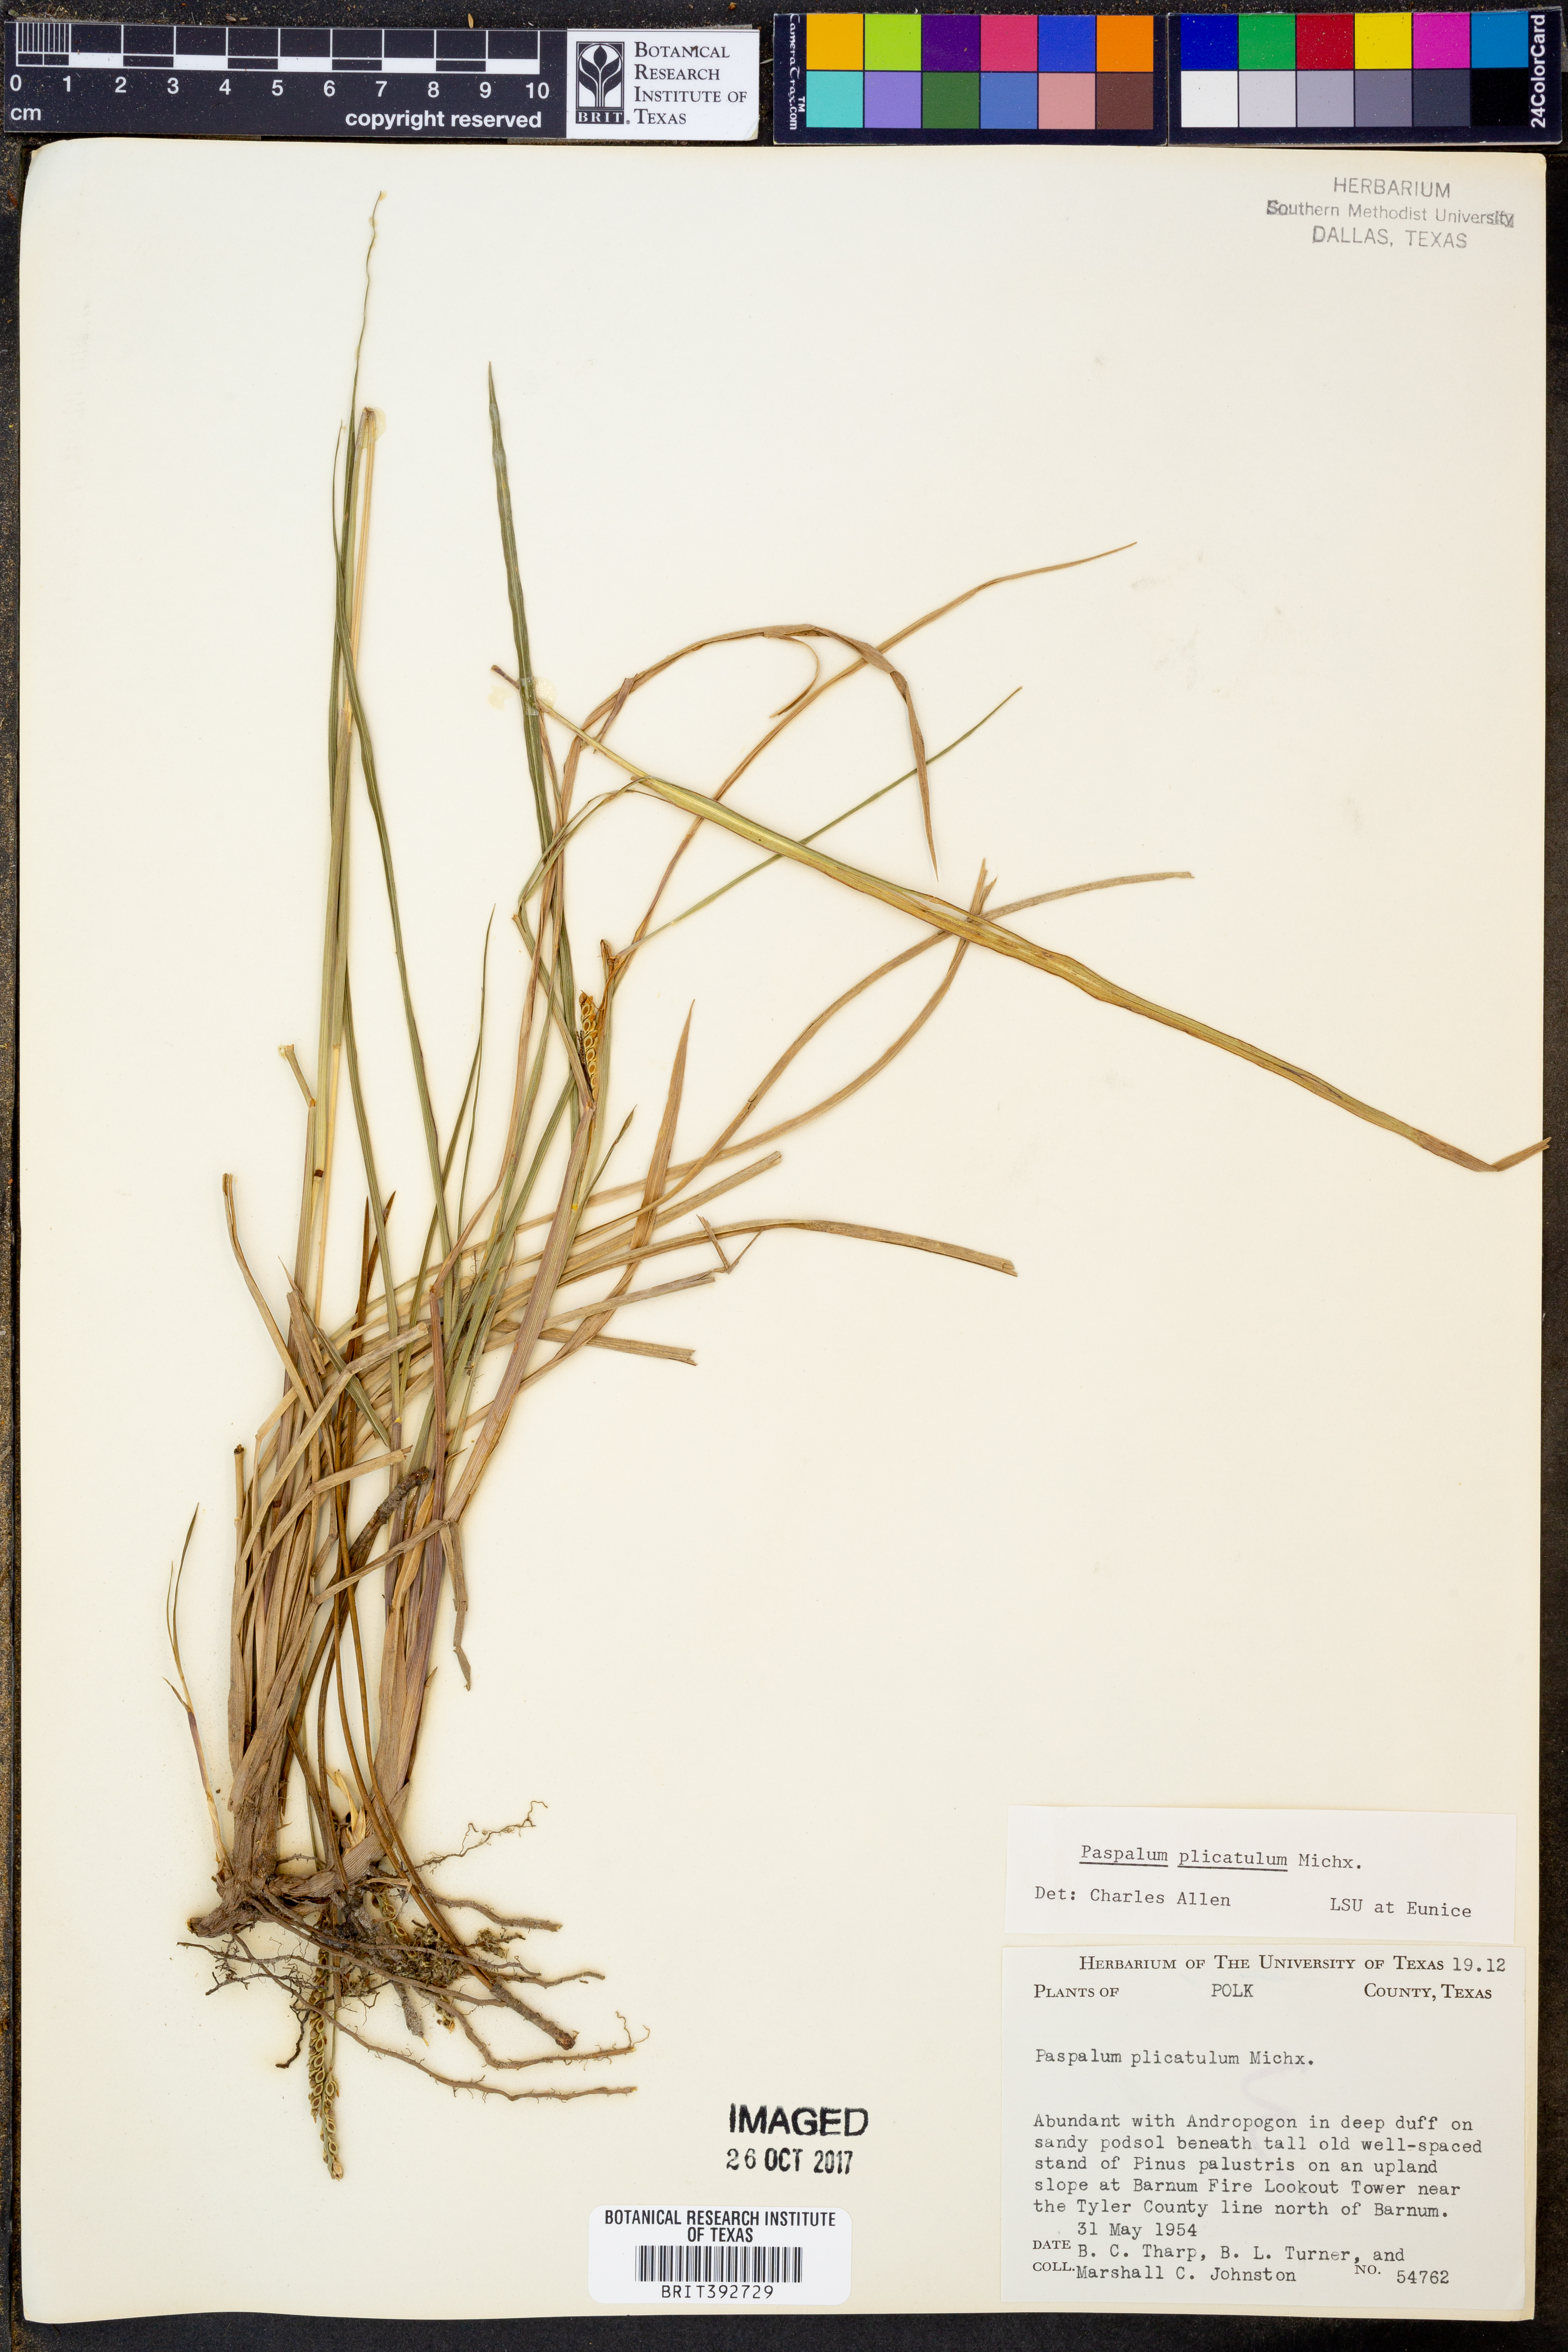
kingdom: Plantae
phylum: Tracheophyta
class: Liliopsida
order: Poales
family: Poaceae
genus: Paspalum
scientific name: Paspalum plicatulum
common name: Top paspalum
